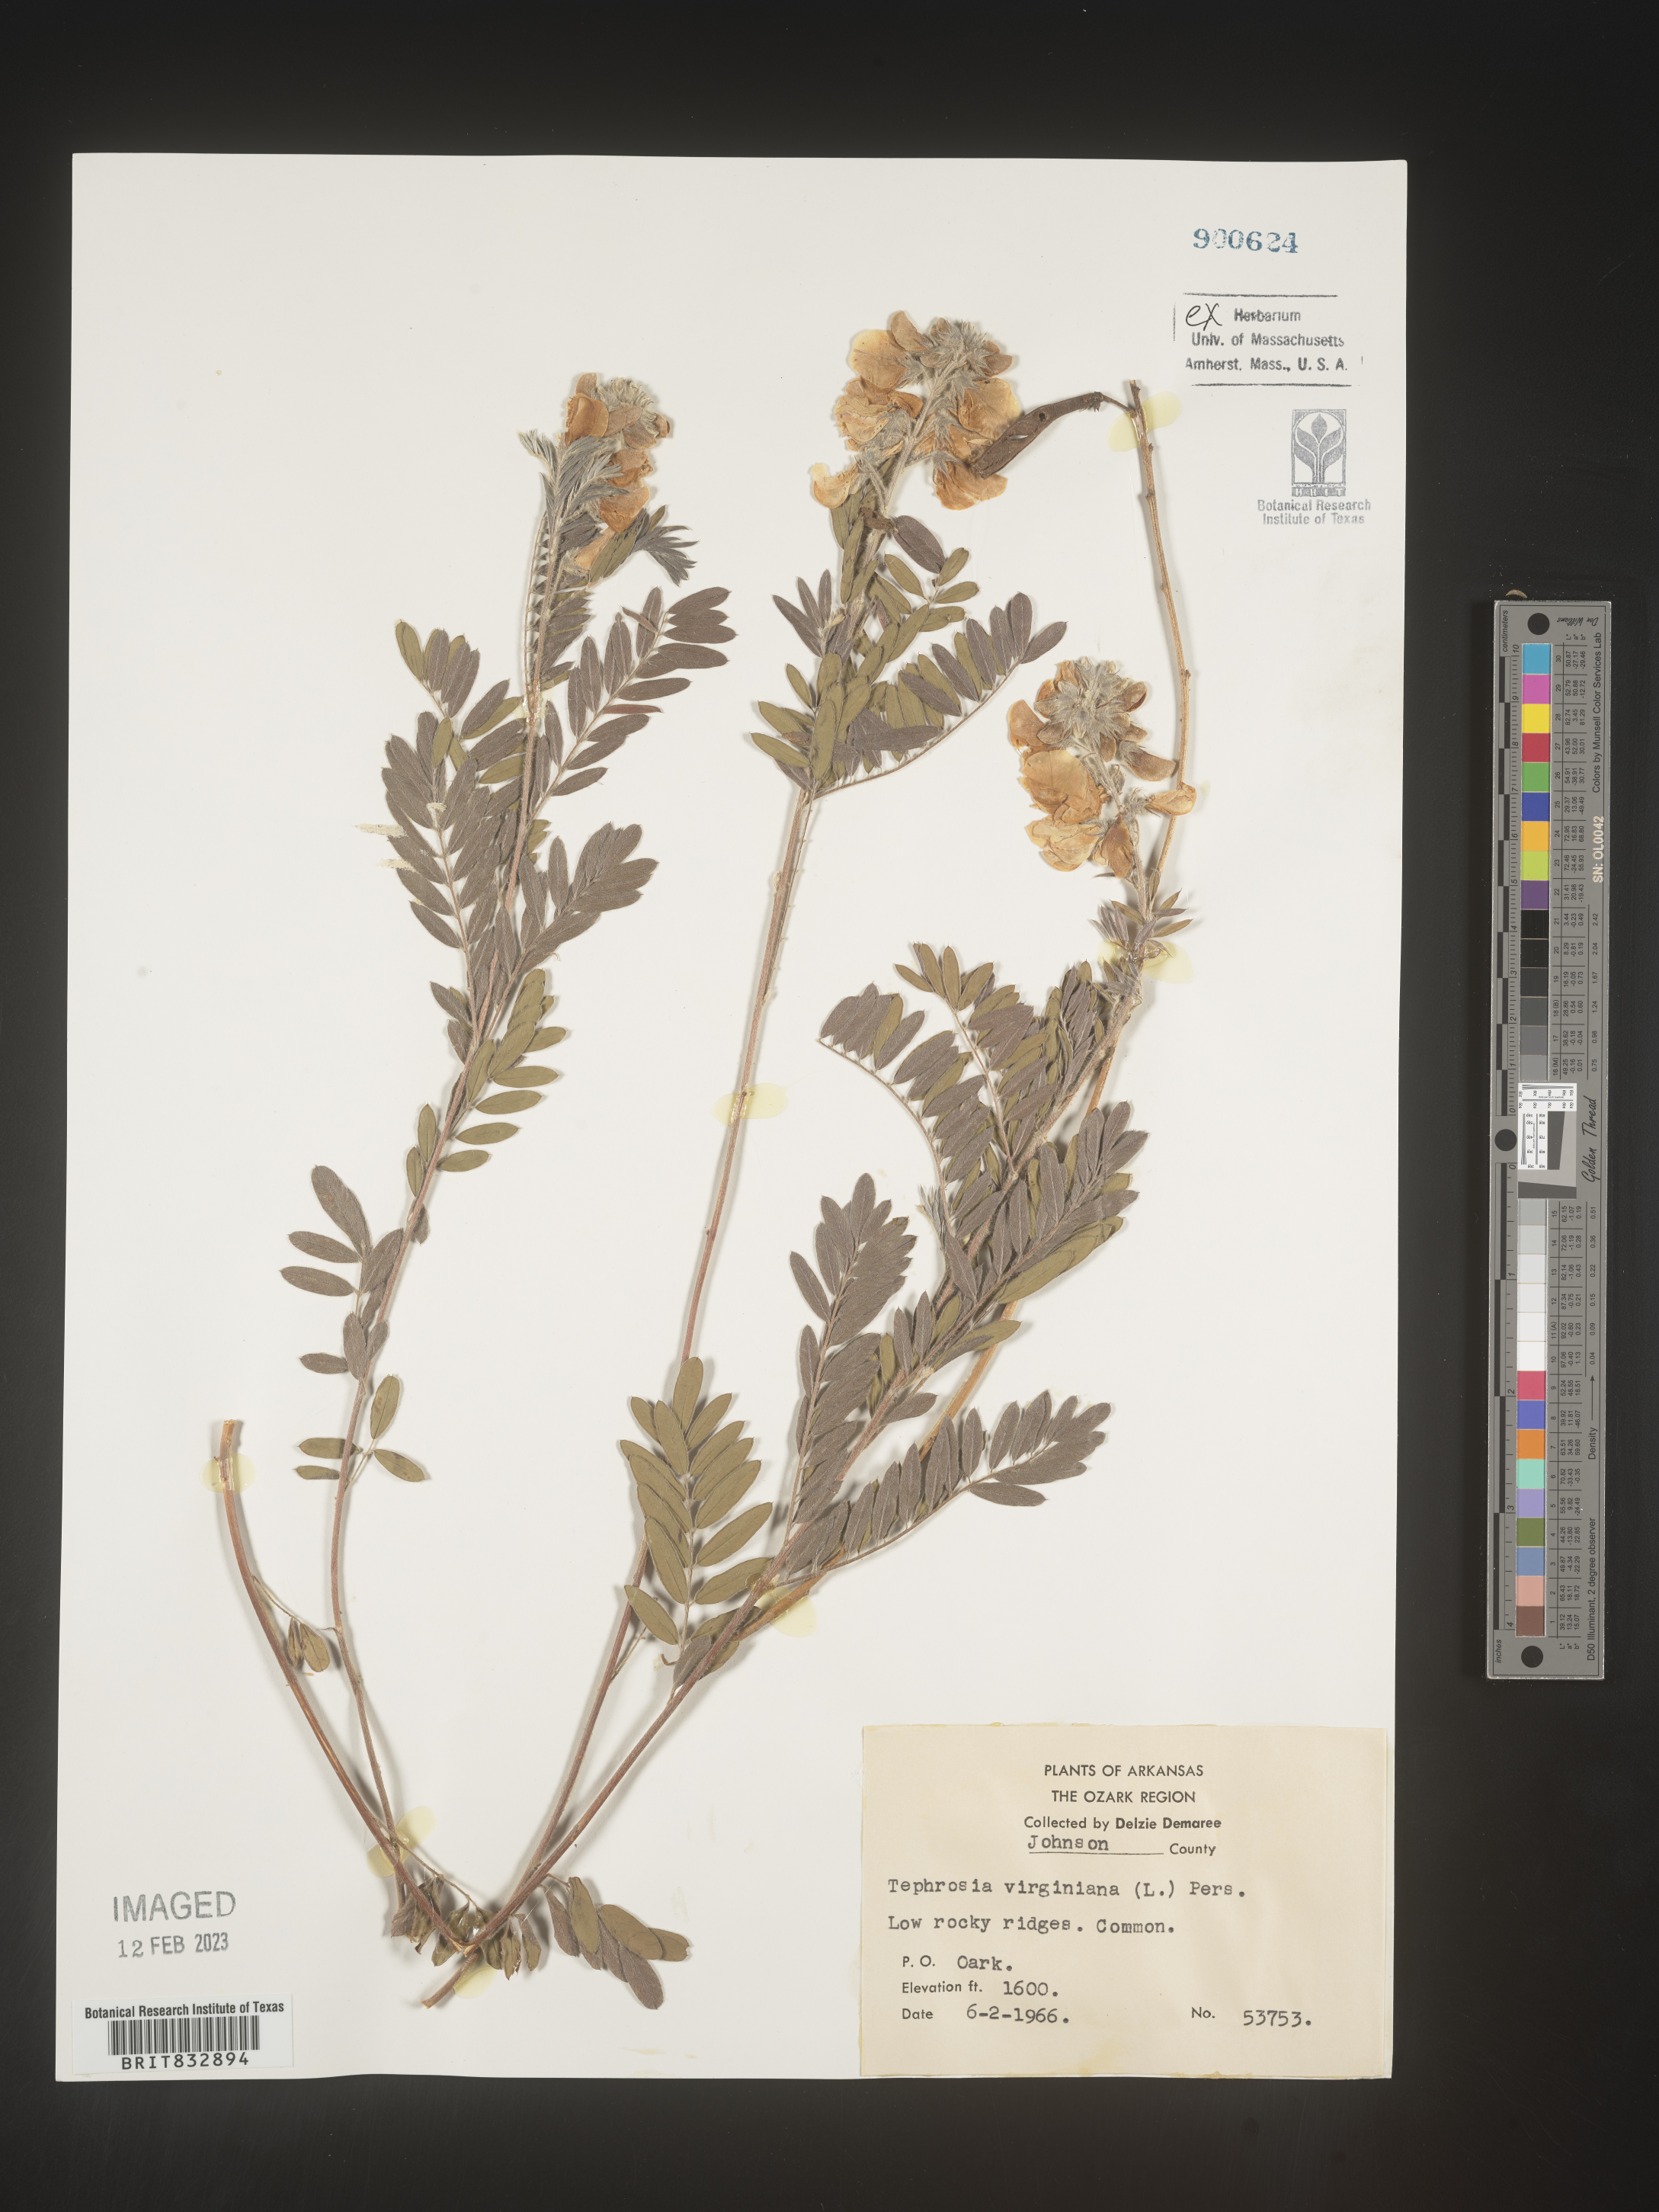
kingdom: Plantae
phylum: Tracheophyta
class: Magnoliopsida
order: Fabales
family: Fabaceae
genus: Tephrosia
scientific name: Tephrosia virginiana
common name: Rabbit-pea
